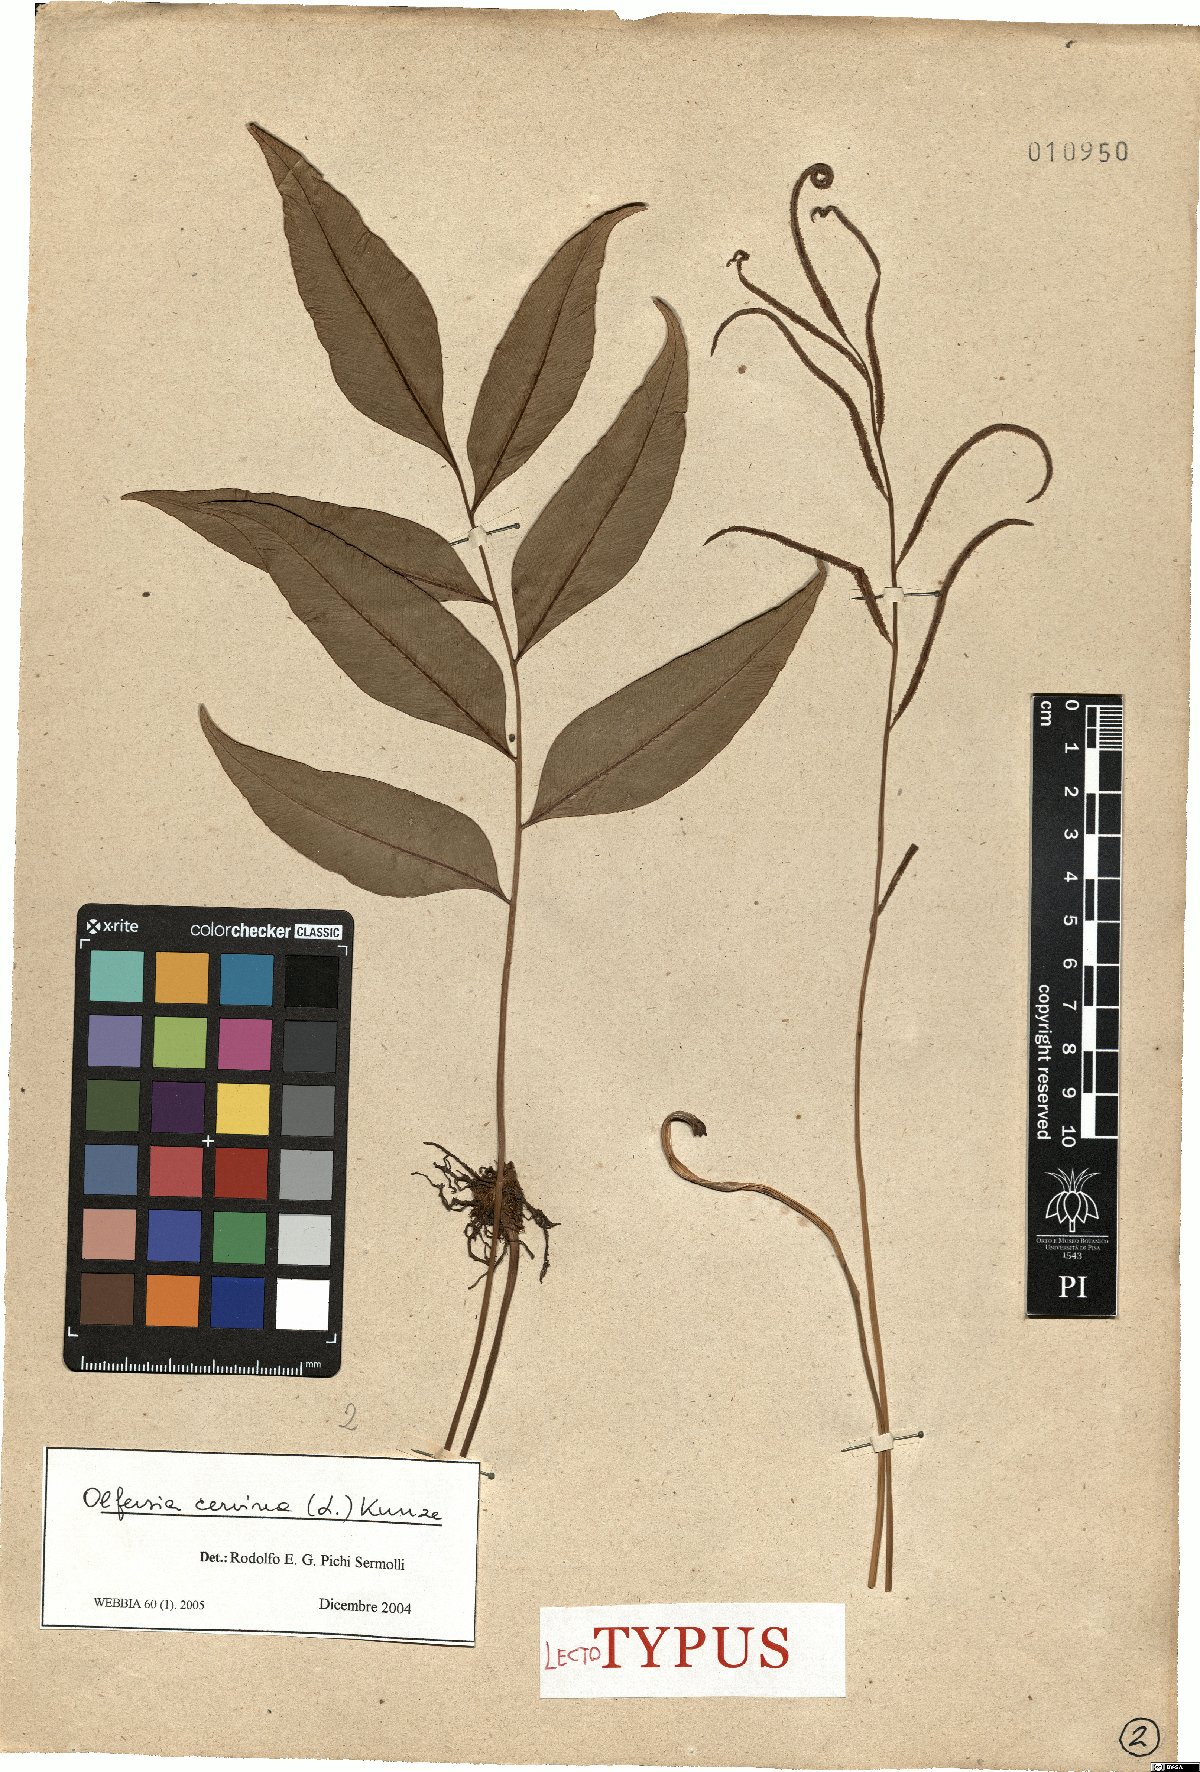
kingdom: Plantae
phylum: Tracheophyta
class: Polypodiopsida
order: Polypodiales
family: Dryopteridaceae
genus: Olfersia
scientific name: Olfersia cervina
